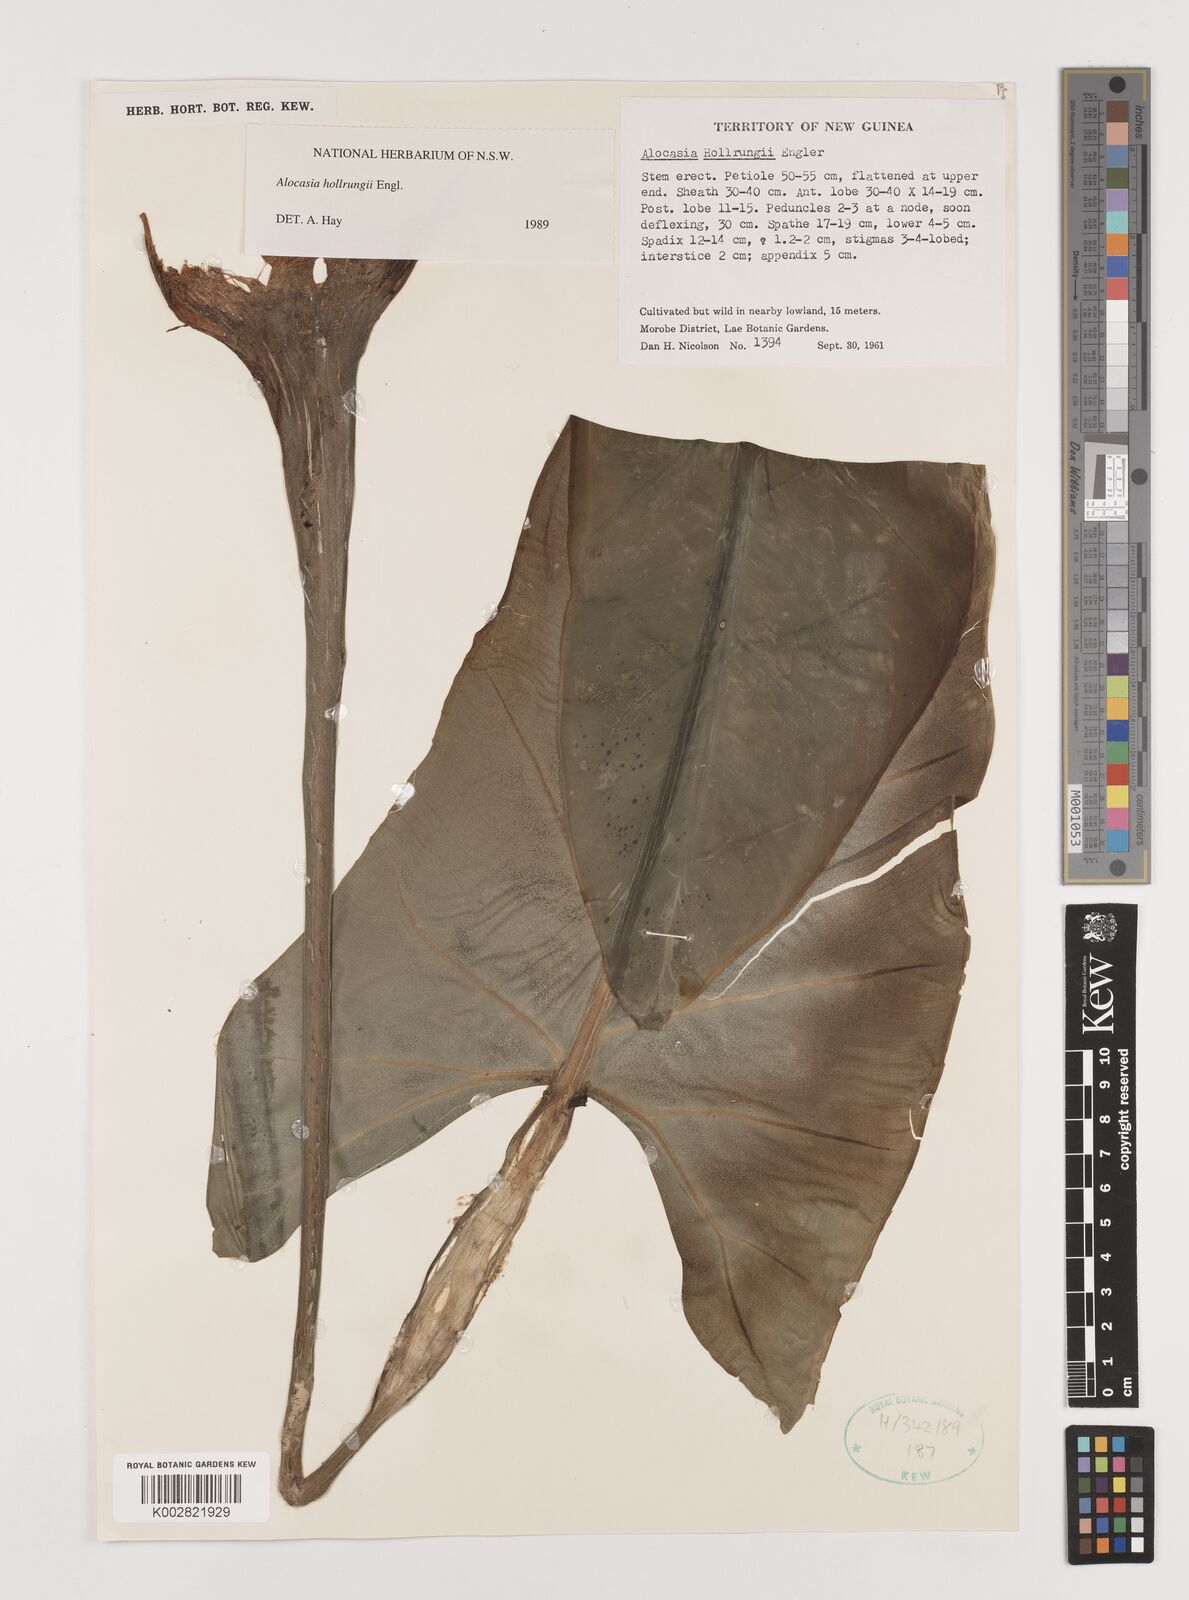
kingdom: Plantae
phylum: Tracheophyta
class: Liliopsida
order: Alismatales
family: Araceae
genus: Alocasia
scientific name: Alocasia hollrungii
